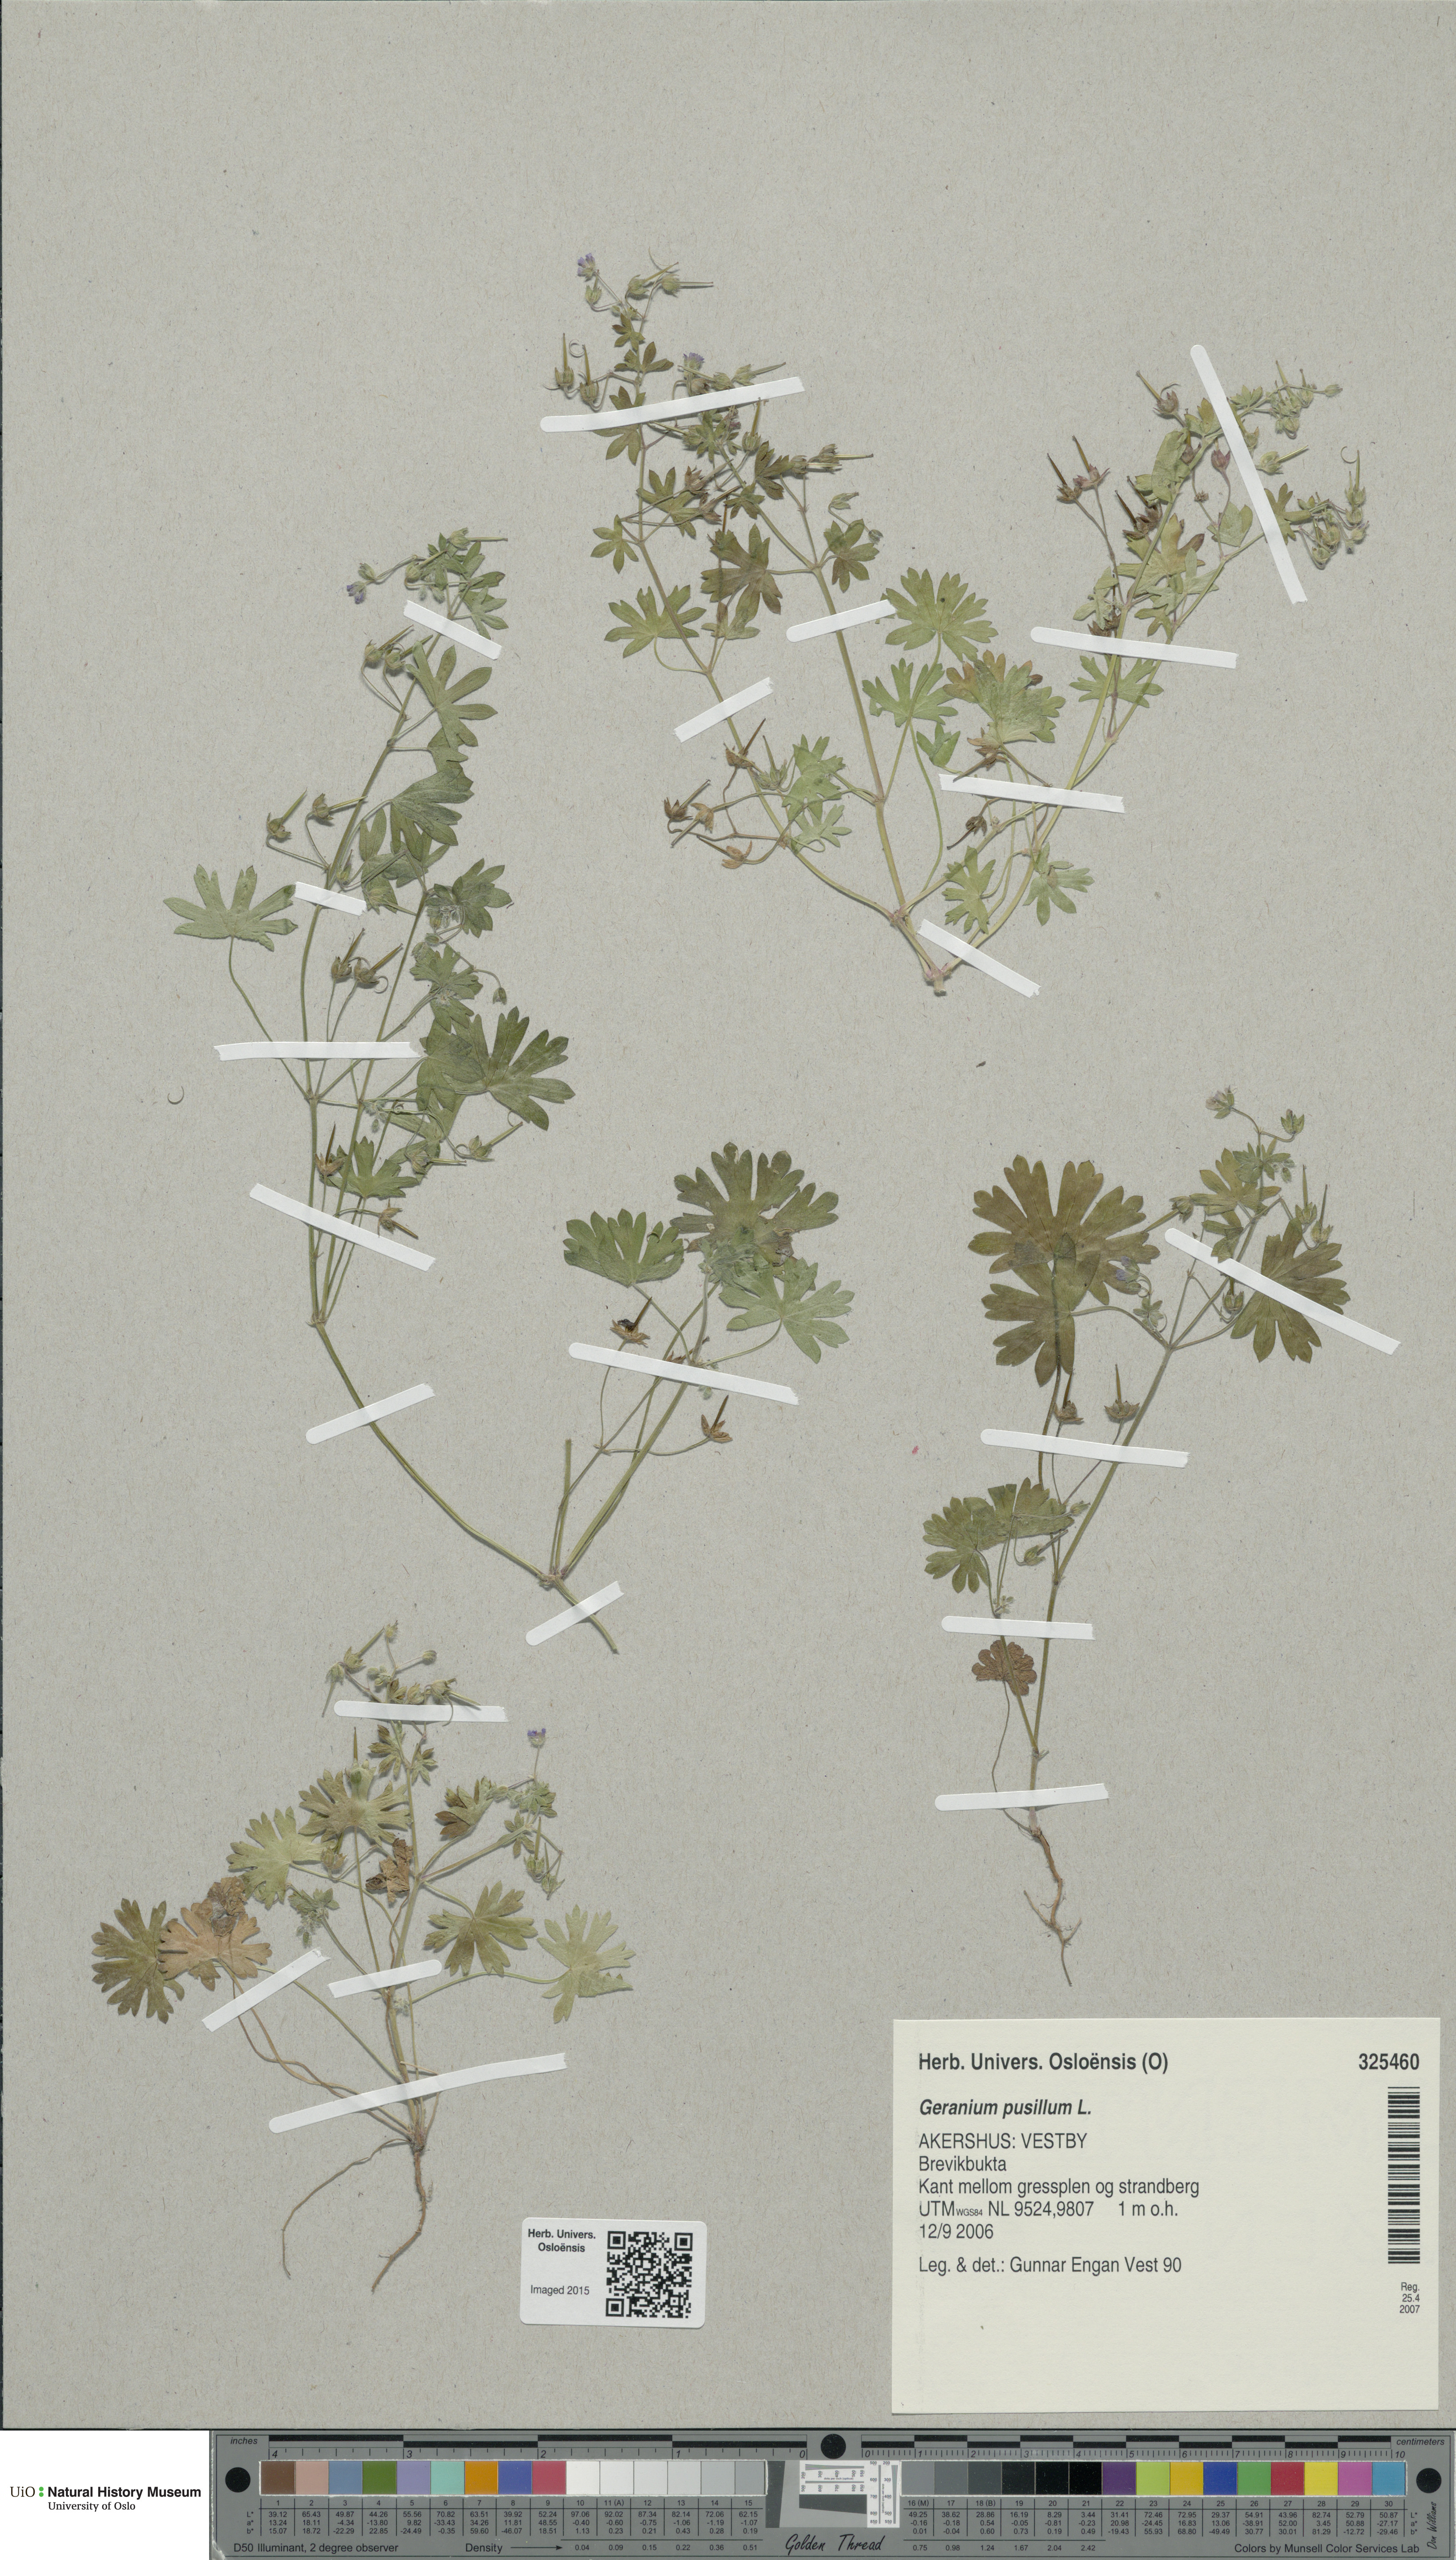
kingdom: Plantae
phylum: Tracheophyta
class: Magnoliopsida
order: Geraniales
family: Geraniaceae
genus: Geranium
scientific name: Geranium pusillum
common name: Small geranium
